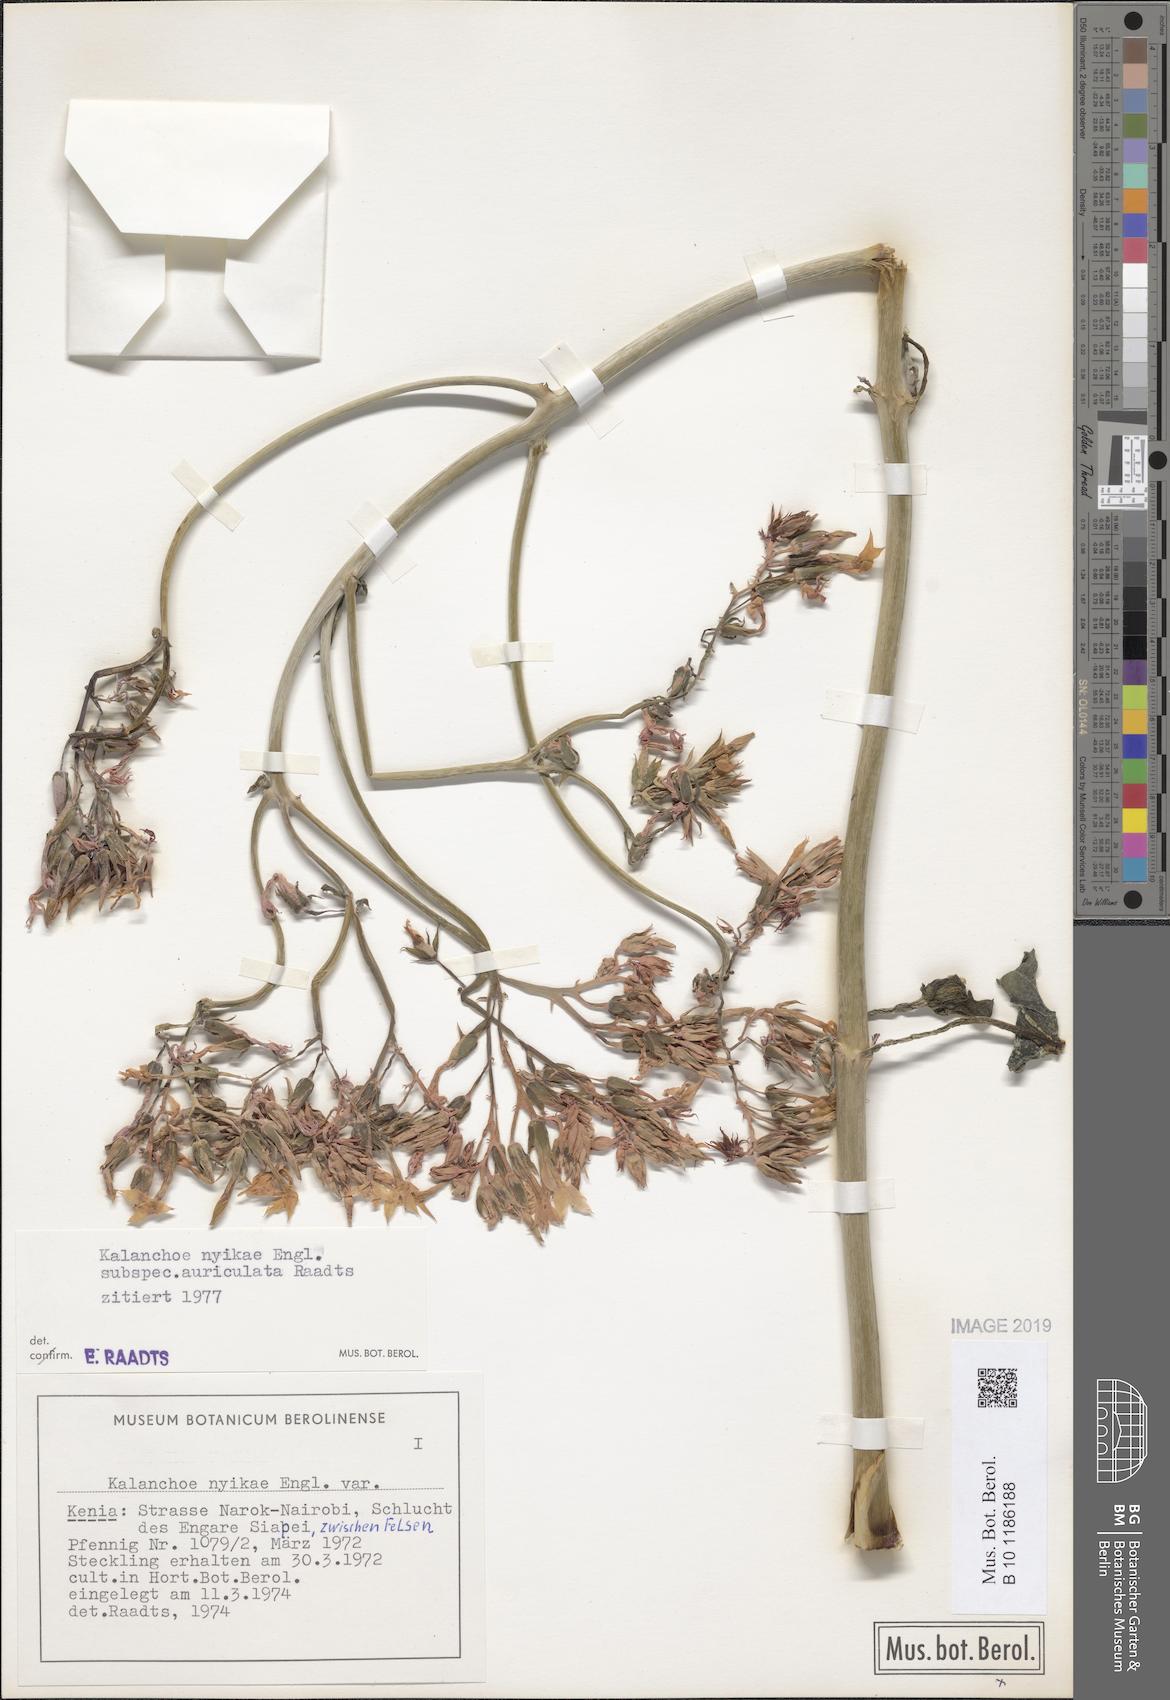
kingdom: Plantae
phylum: Tracheophyta
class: Magnoliopsida
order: Saxifragales
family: Crassulaceae
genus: Kalanchoe
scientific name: Kalanchoe auriculata
